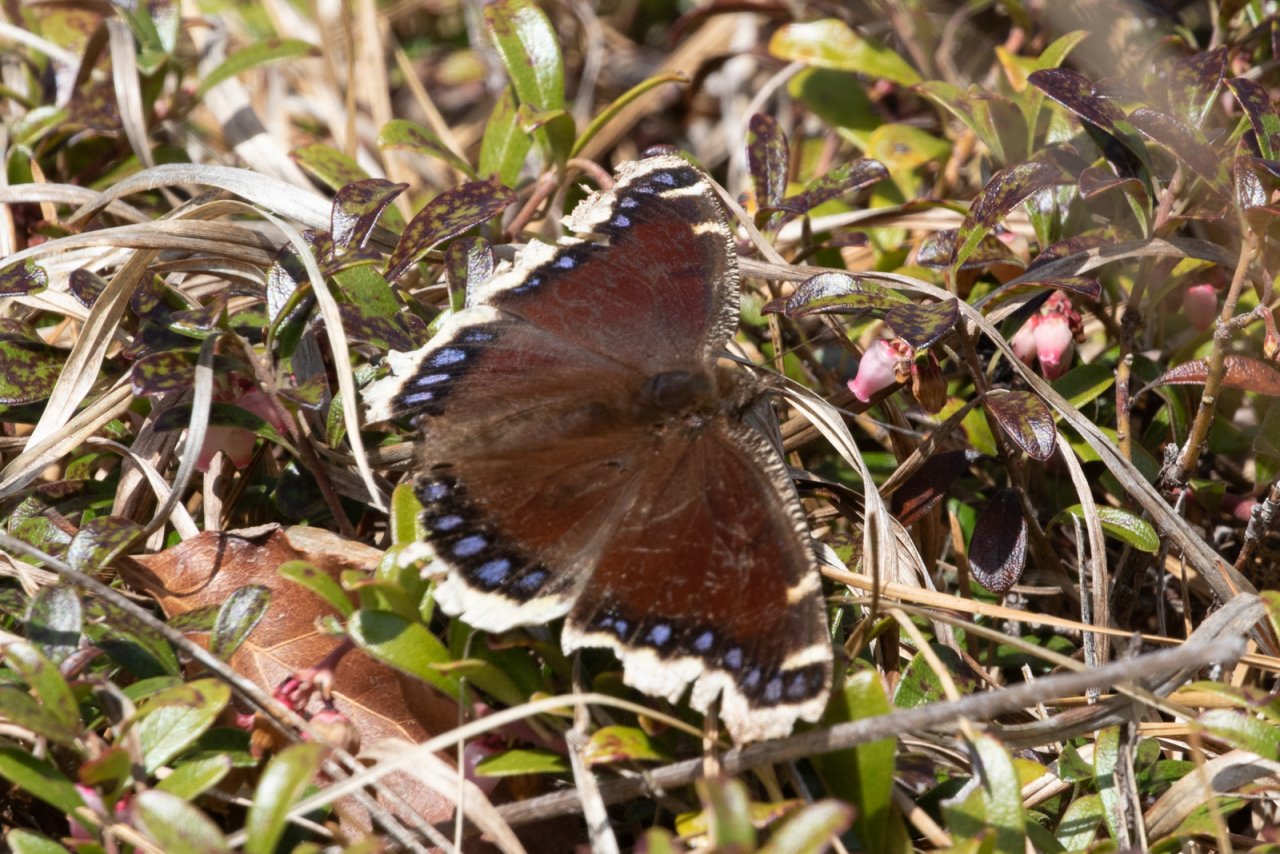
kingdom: Animalia
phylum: Arthropoda
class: Insecta
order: Lepidoptera
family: Nymphalidae
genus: Nymphalis
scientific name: Nymphalis antiopa
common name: Mourning Cloak
